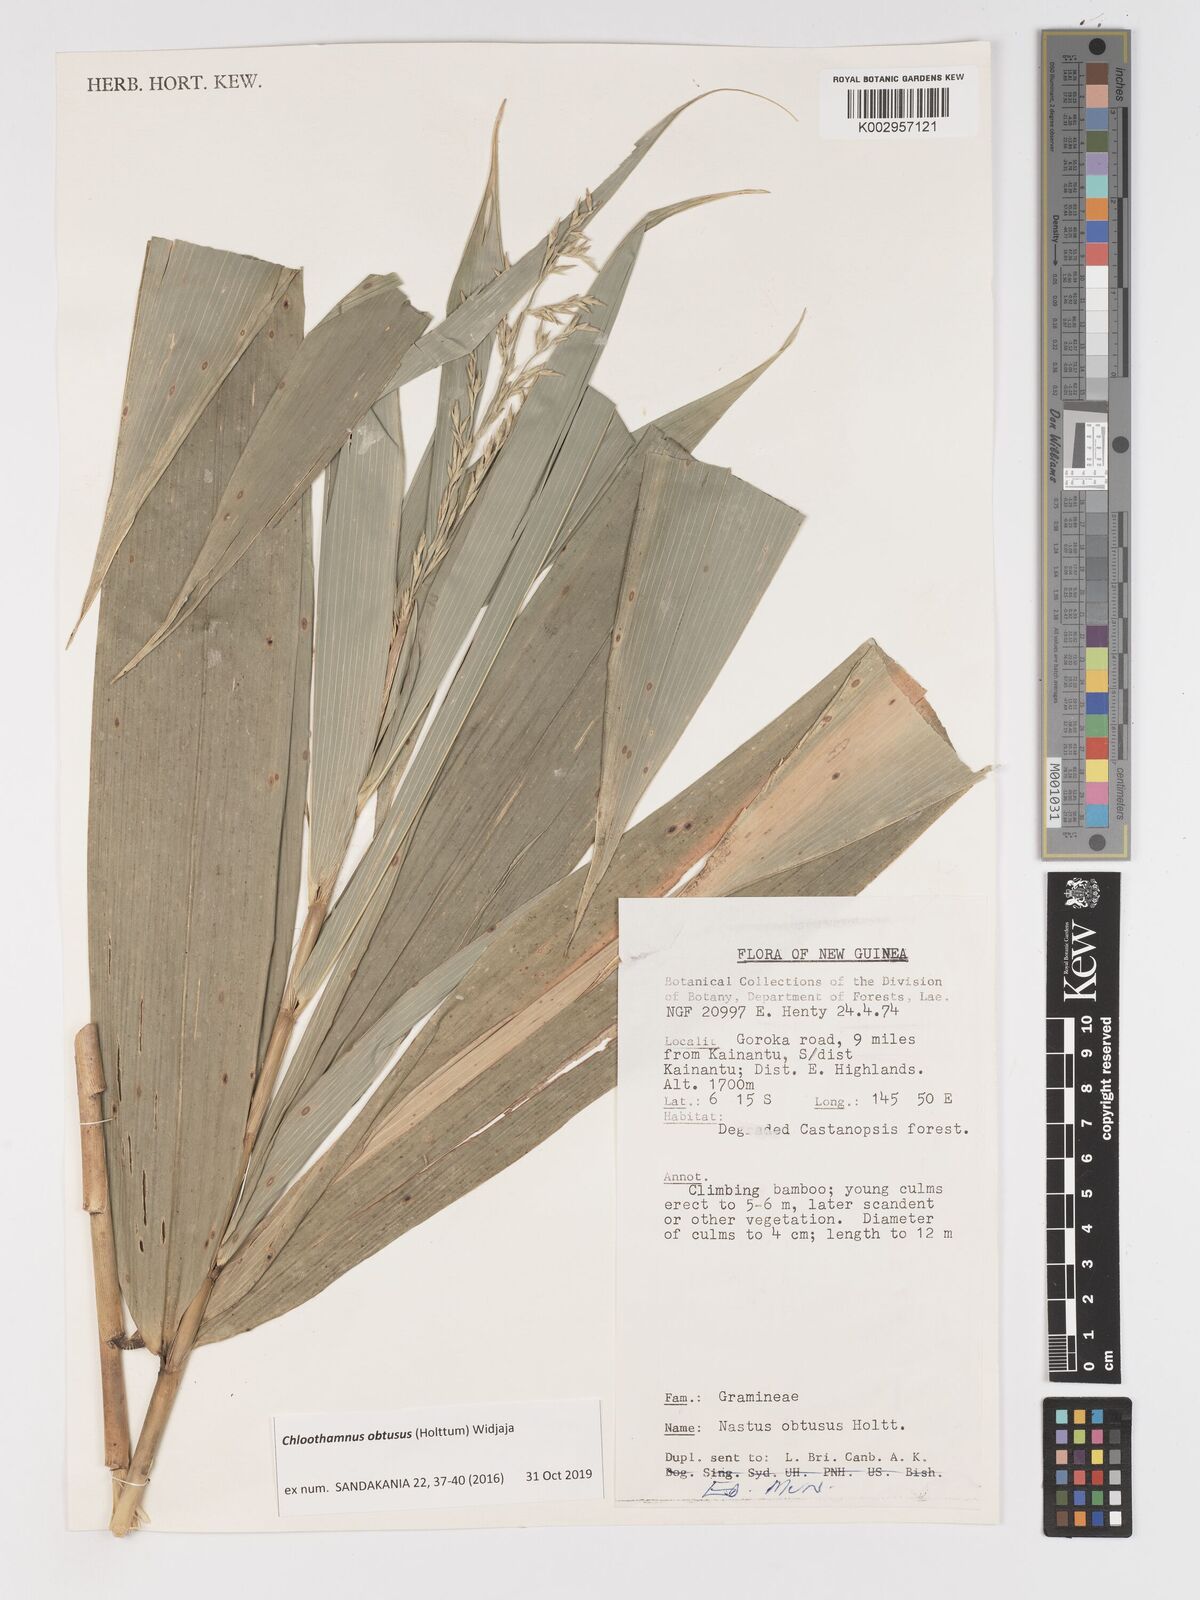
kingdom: Plantae
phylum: Tracheophyta
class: Liliopsida
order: Poales
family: Poaceae
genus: Chloothamnus
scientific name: Chloothamnus obtusus
